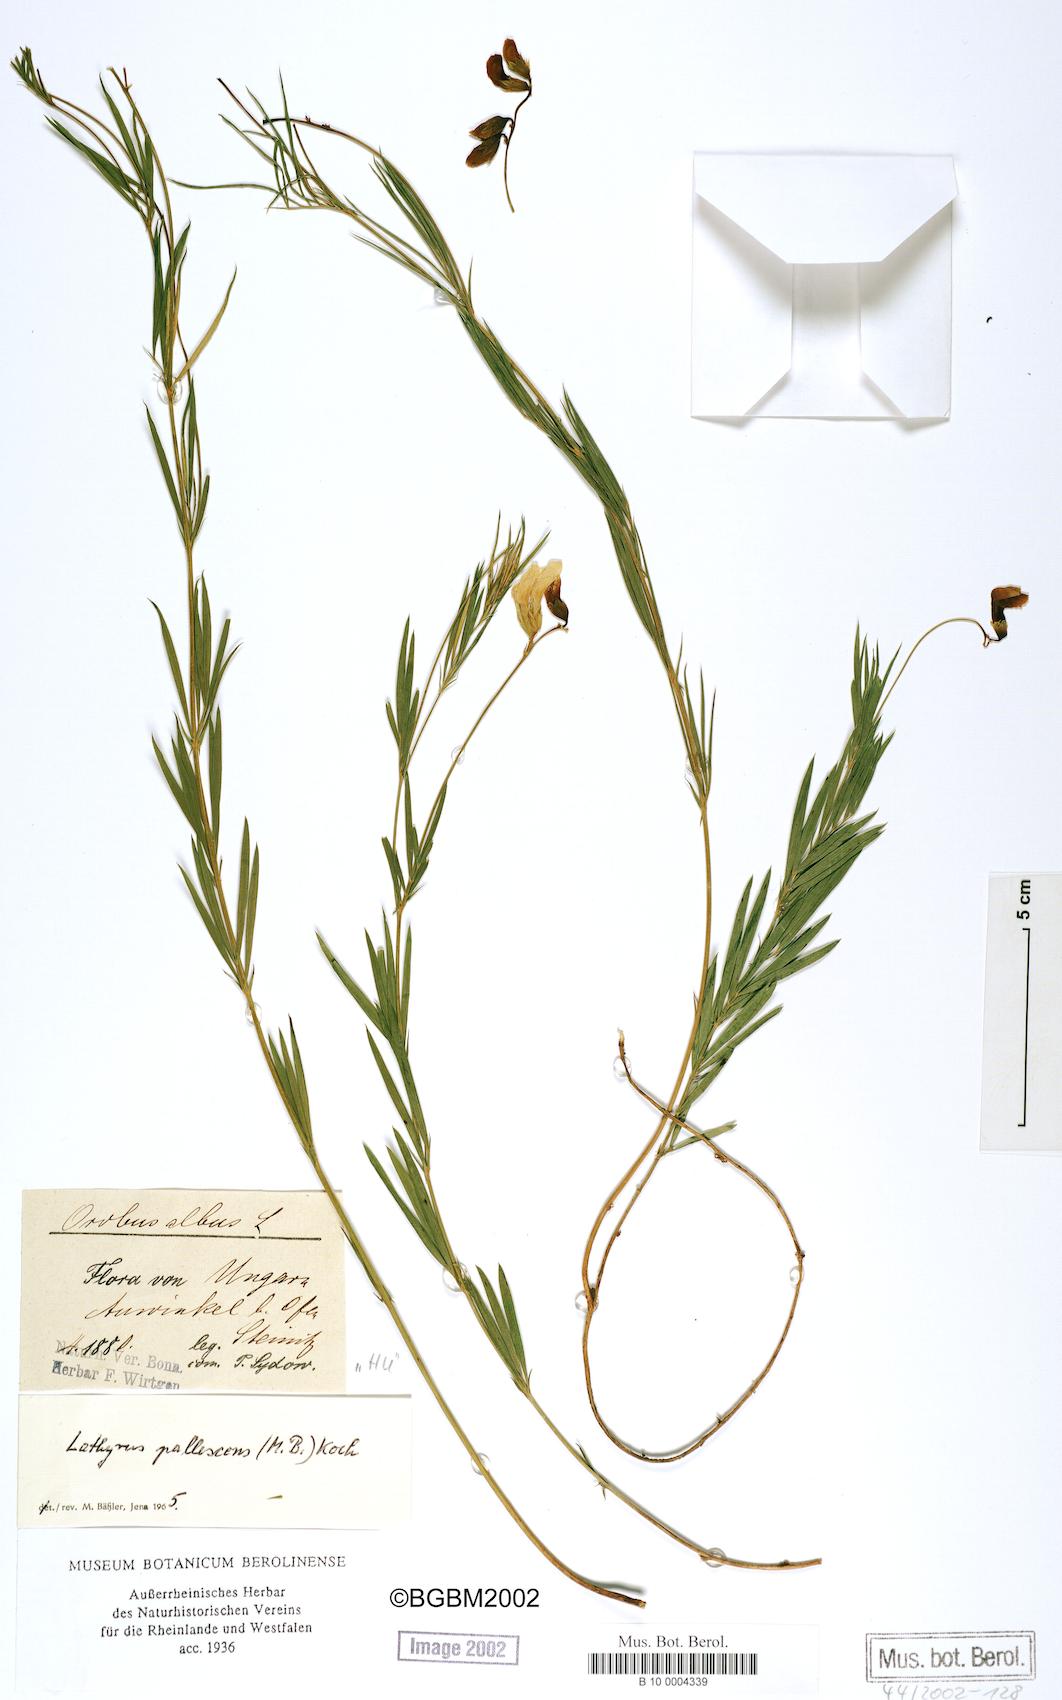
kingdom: Plantae
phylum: Tracheophyta
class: Magnoliopsida
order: Fabales
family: Fabaceae
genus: Lathyrus
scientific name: Lathyrus pallescens
